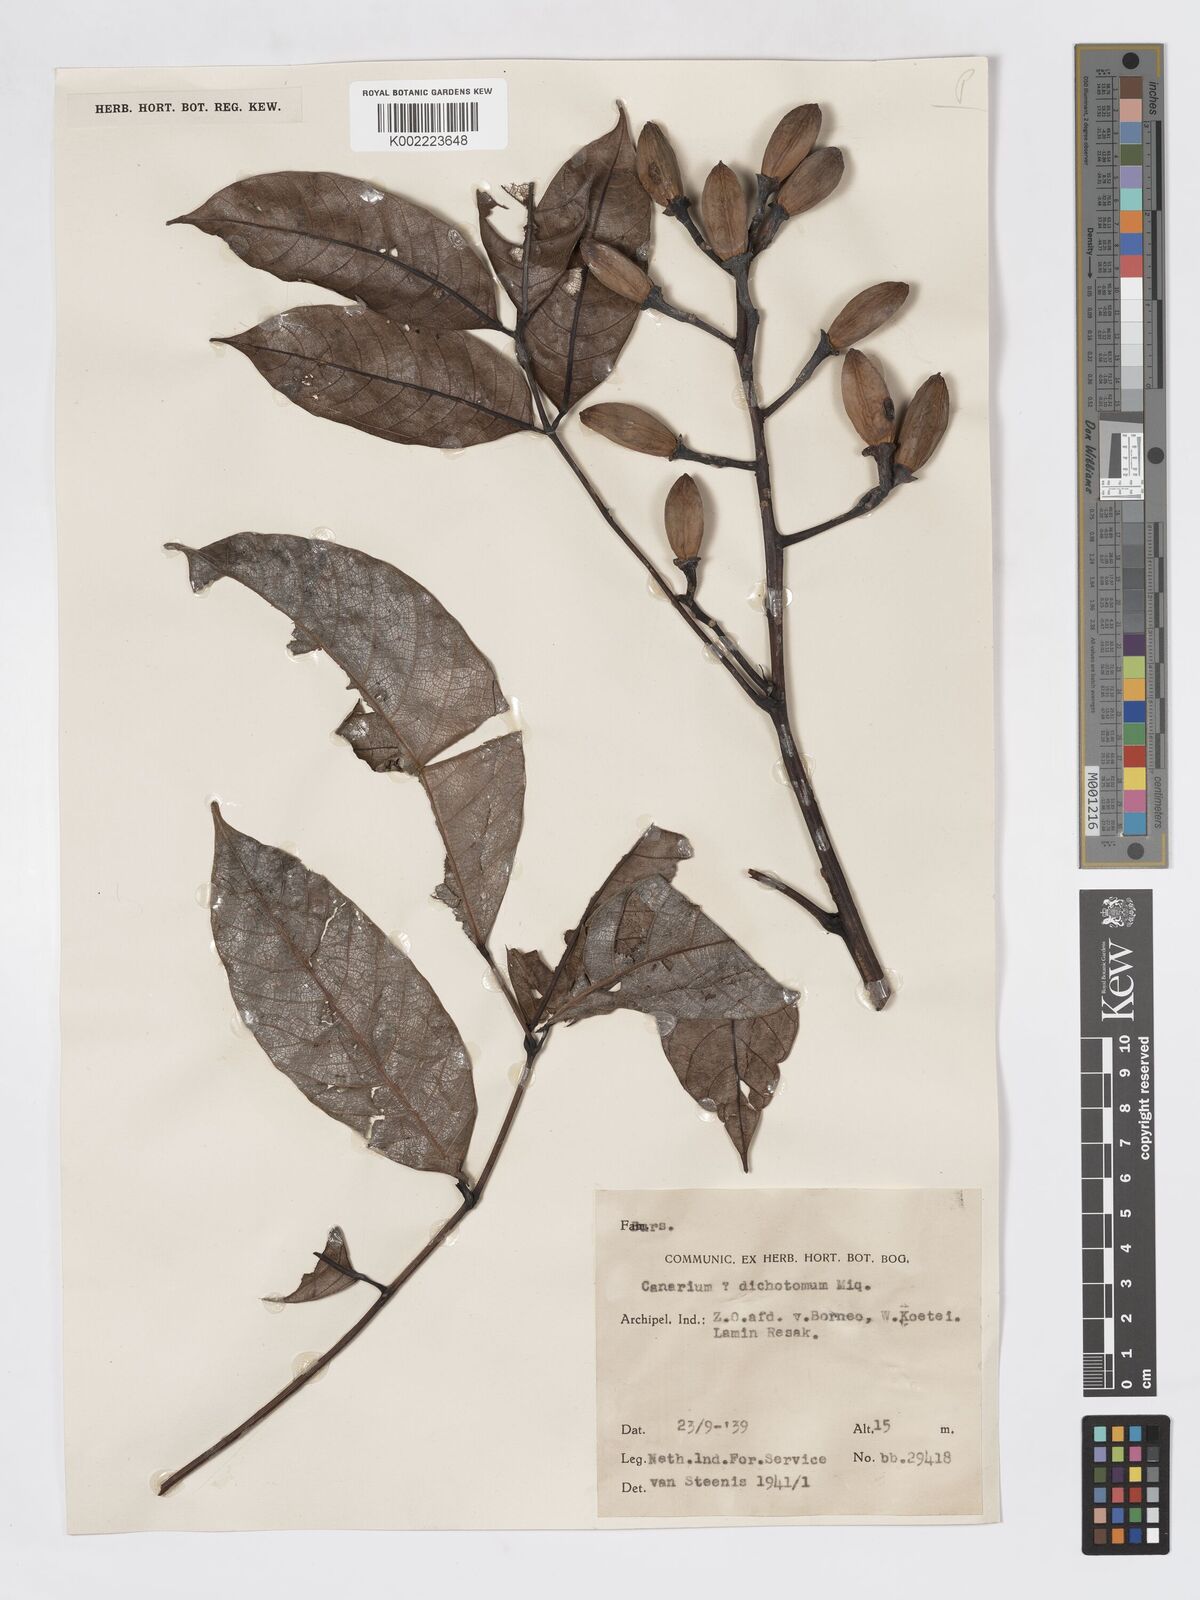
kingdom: Plantae
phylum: Tracheophyta
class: Magnoliopsida
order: Sapindales
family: Burseraceae
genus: Canarium
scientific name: Canarium dichotomum
